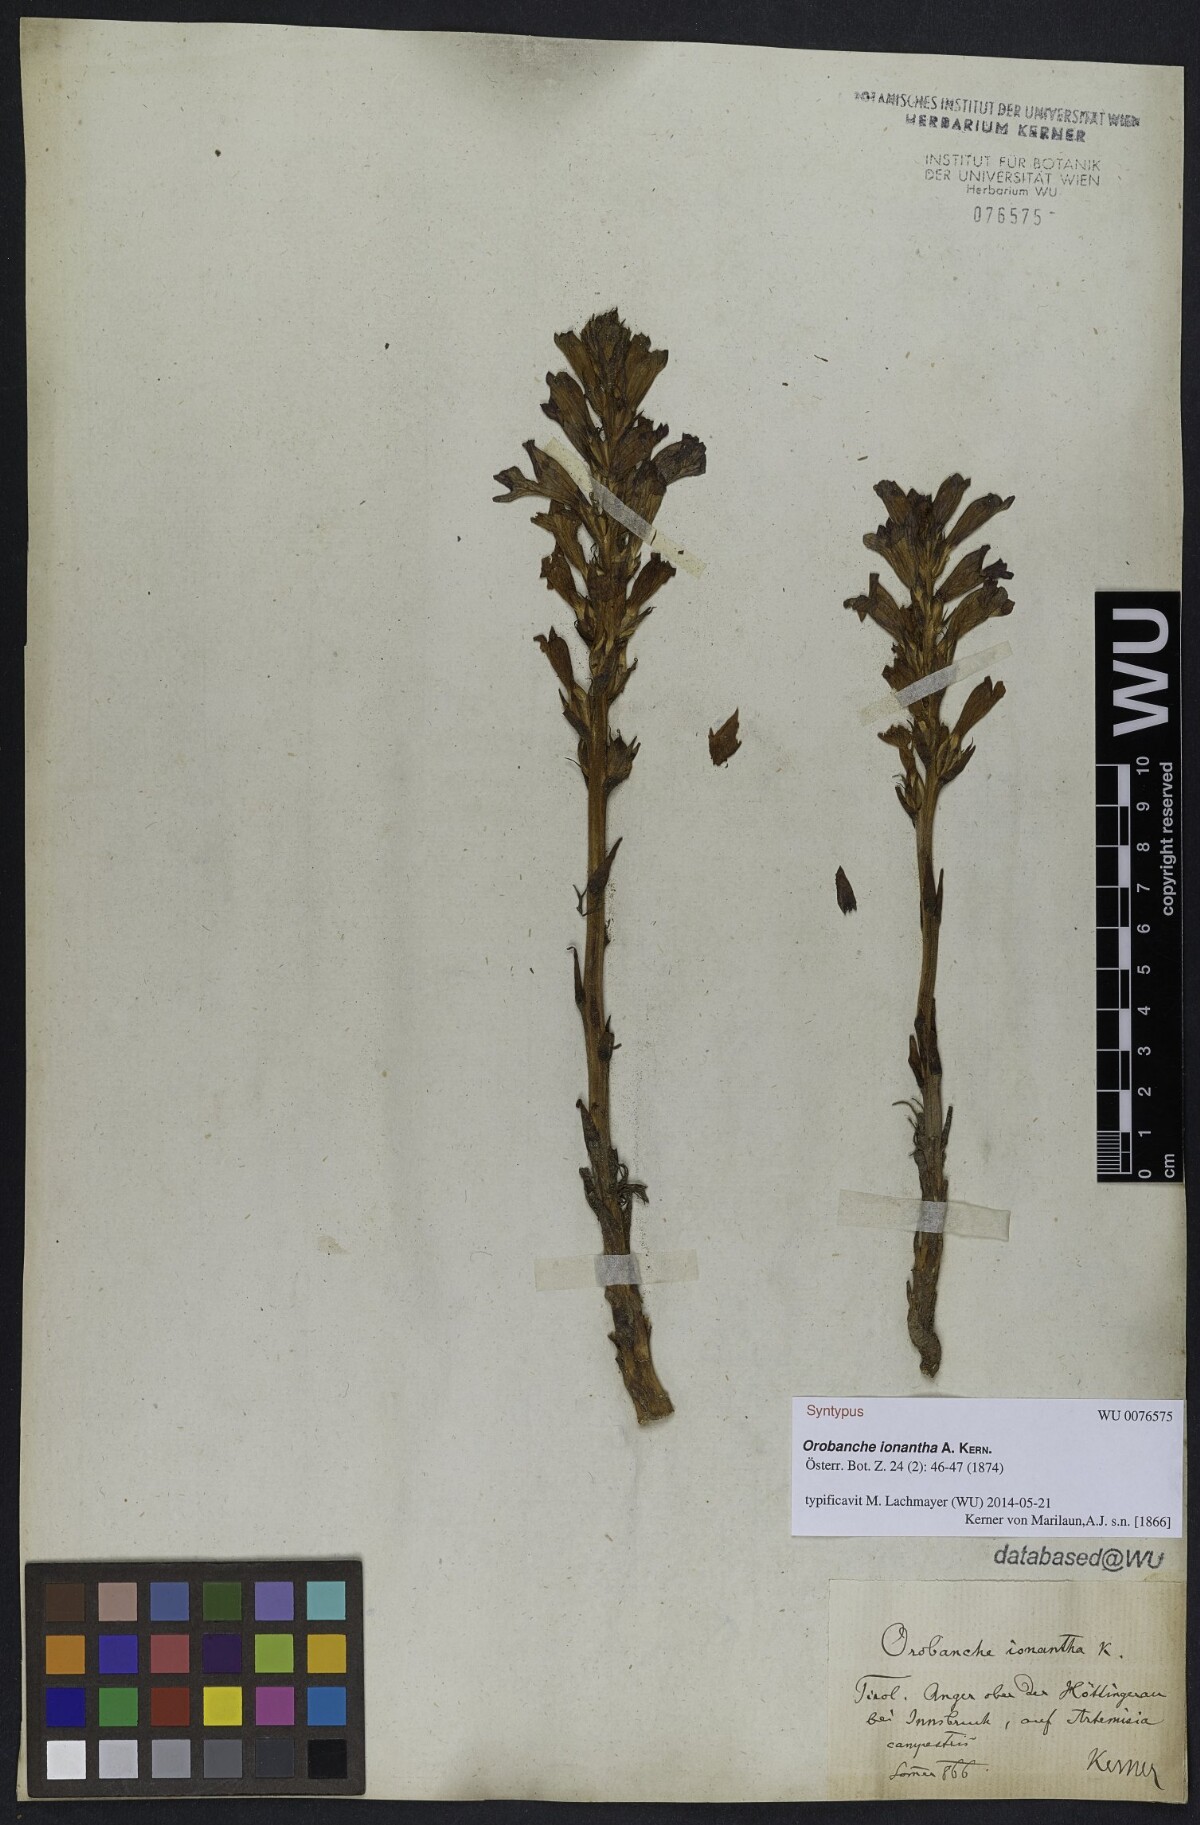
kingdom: Plantae
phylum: Tracheophyta
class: Magnoliopsida
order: Lamiales
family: Orobanchaceae
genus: Phelipanche
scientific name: Phelipanche arenaria
